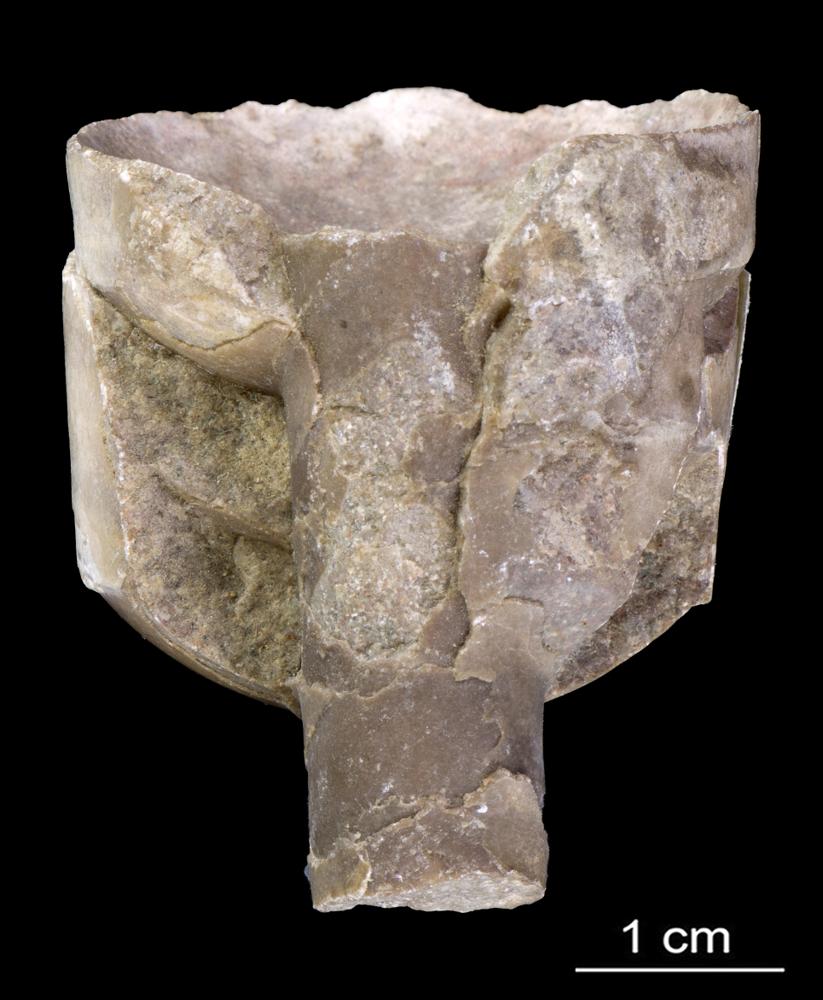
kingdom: Animalia
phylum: Mollusca
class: Cephalopoda
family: Endoceratidae
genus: Proterovaginoceras
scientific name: Proterovaginoceras Endoceras incognitum
